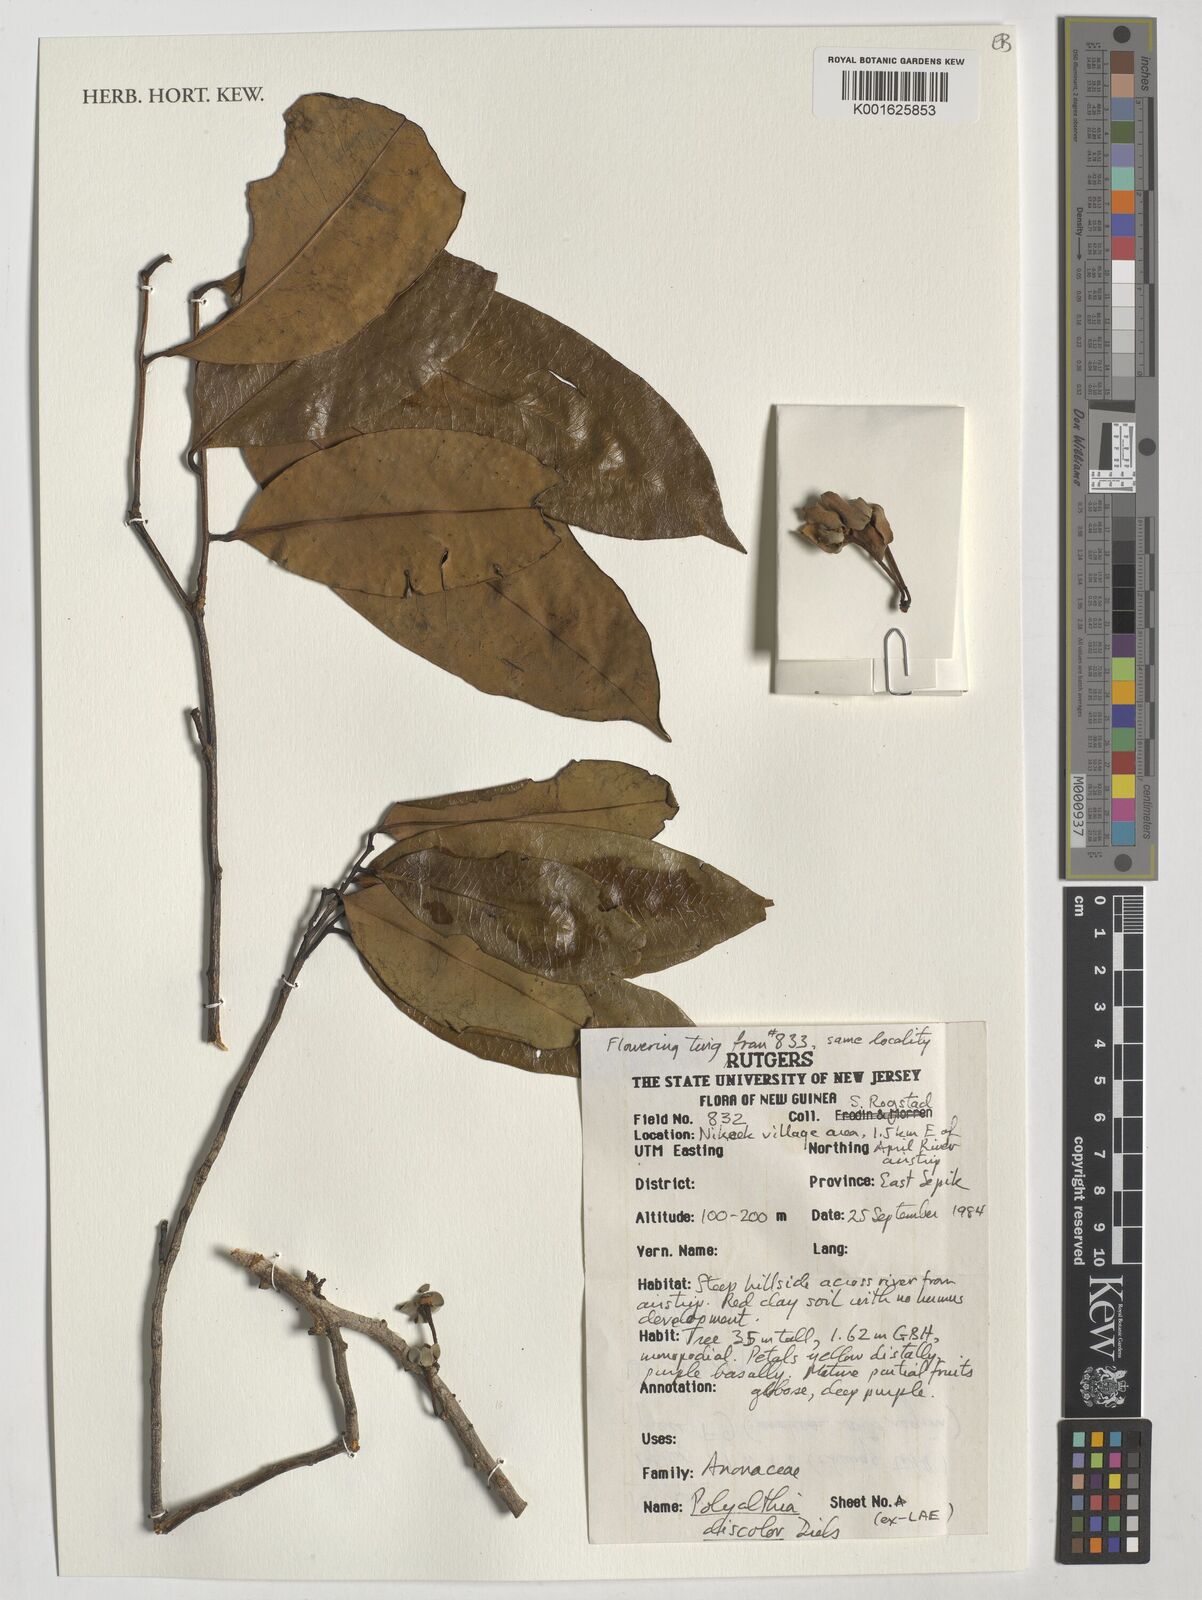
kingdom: Plantae
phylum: Tracheophyta
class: Magnoliopsida
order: Magnoliales
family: Annonaceae
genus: Maasia
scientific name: Maasia discolor
